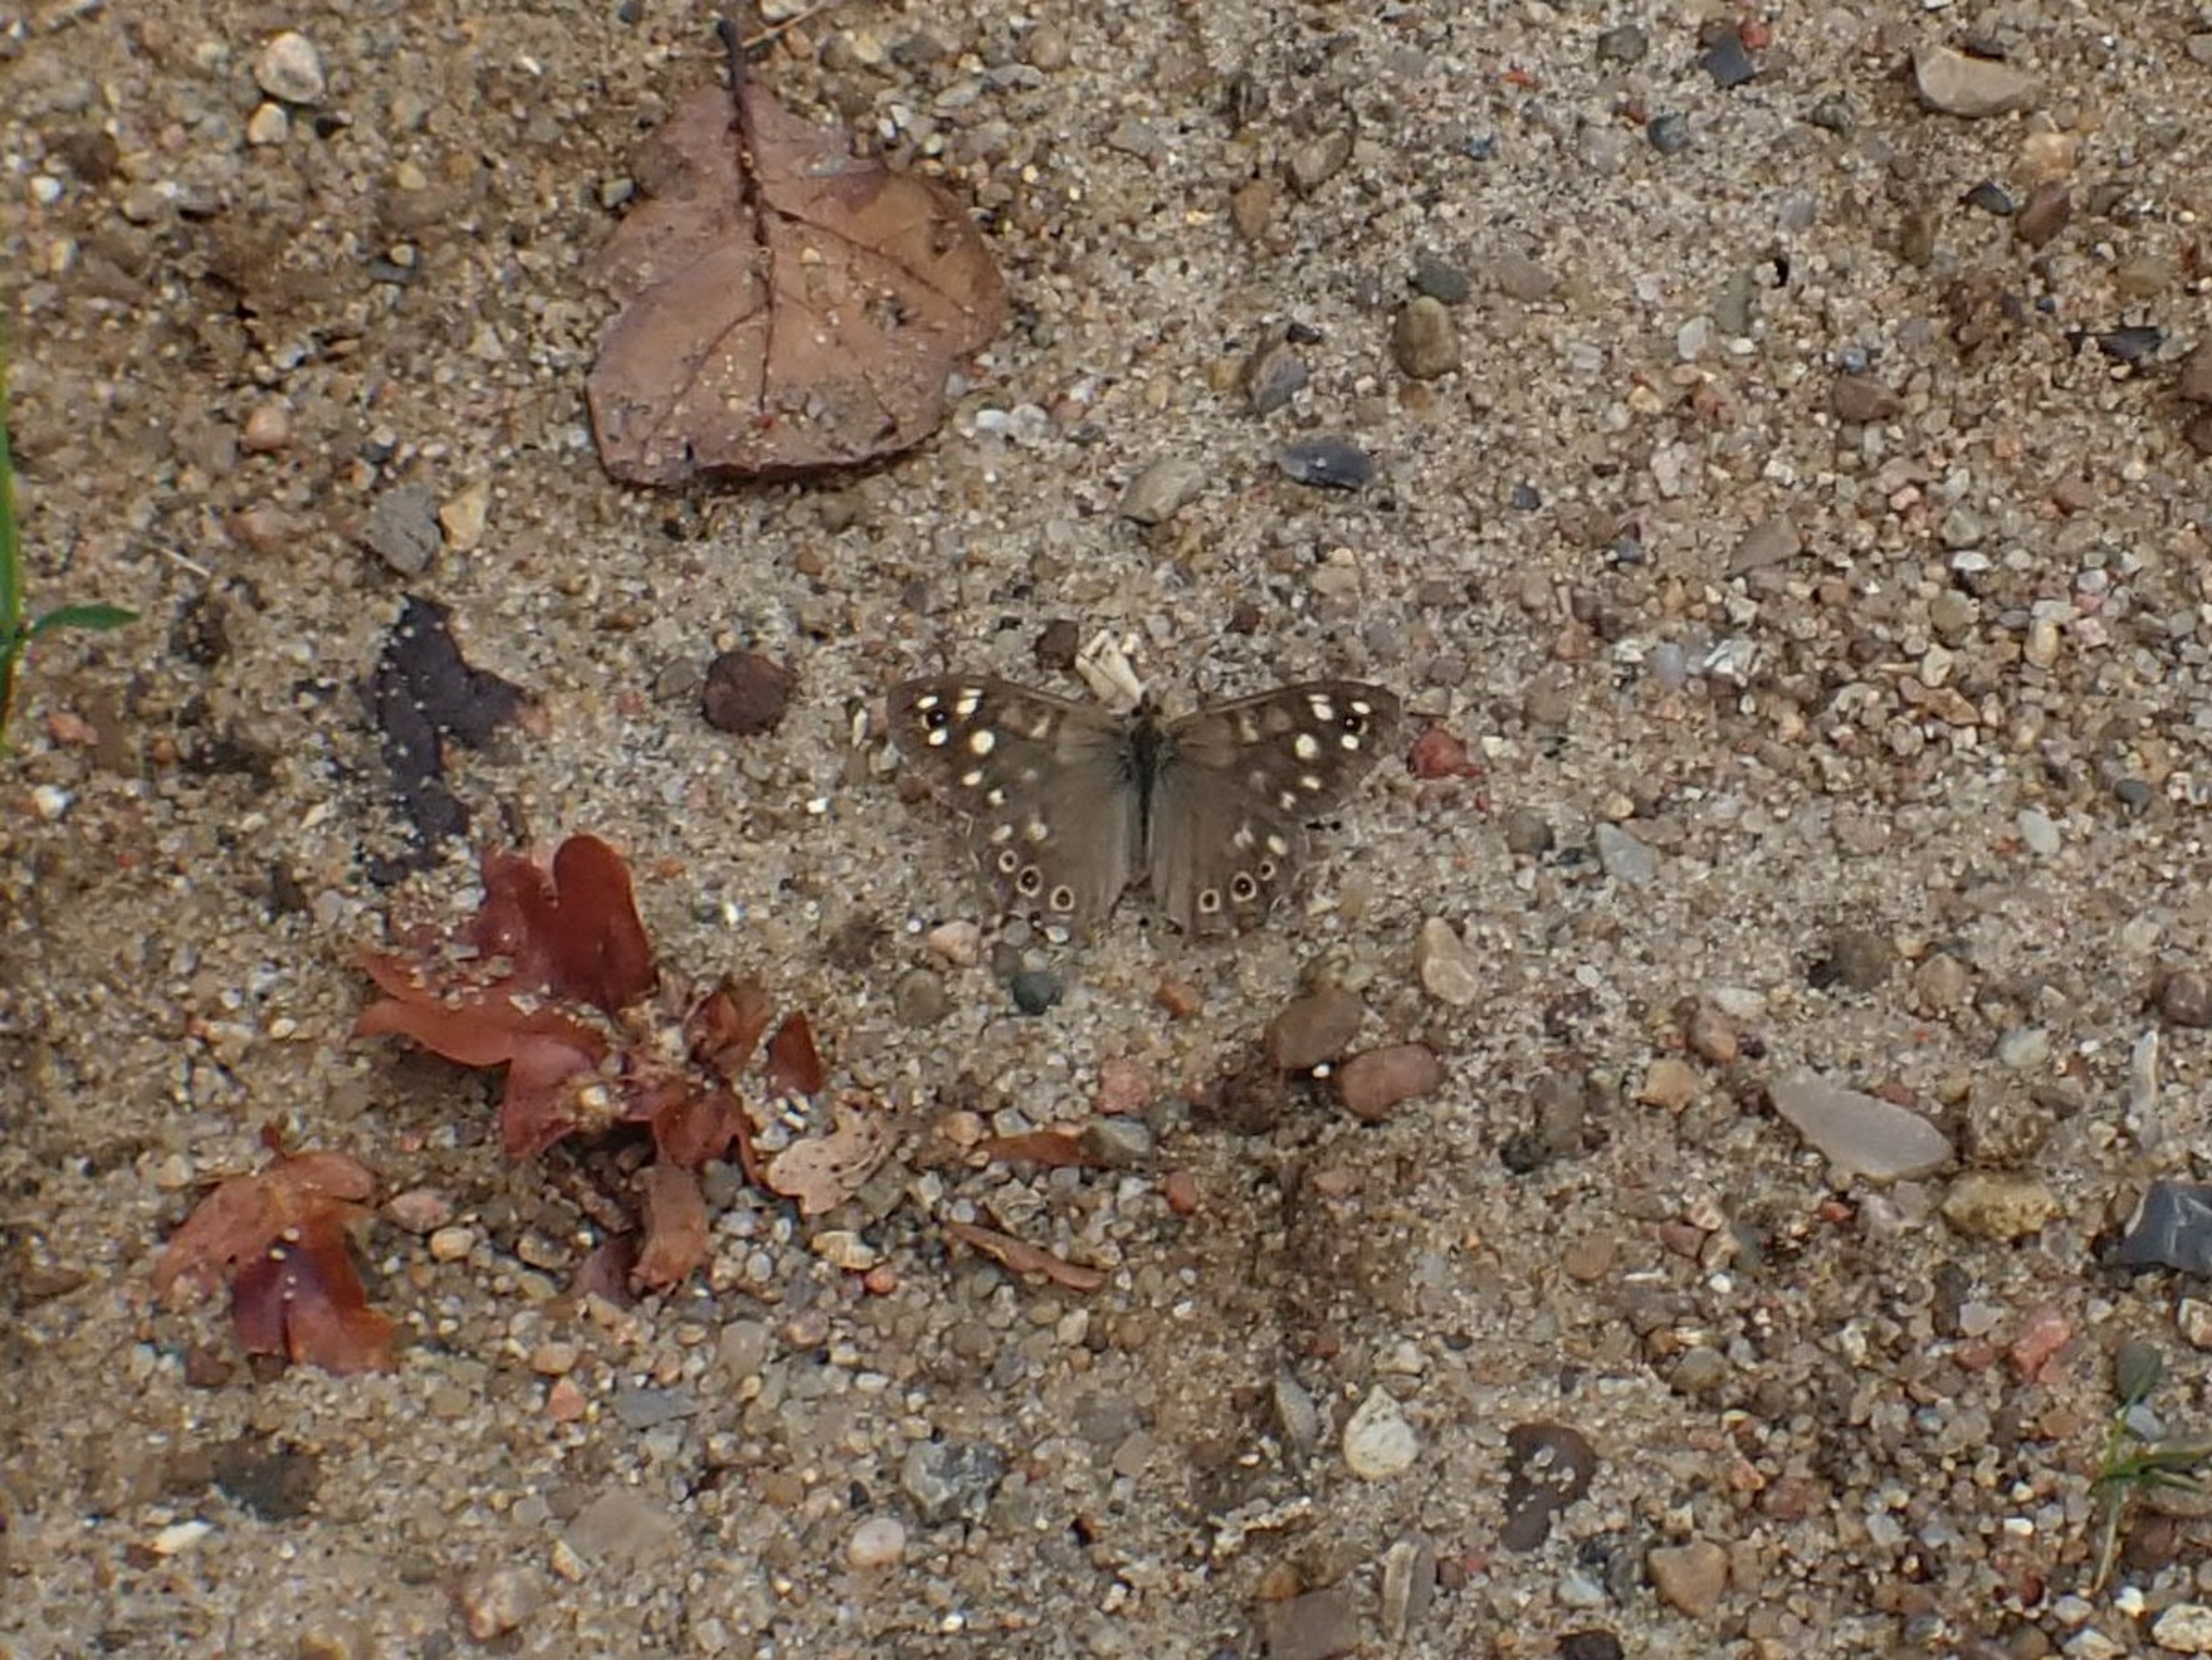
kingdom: Animalia
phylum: Arthropoda
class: Insecta
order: Lepidoptera
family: Nymphalidae
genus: Pararge
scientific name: Pararge aegeria
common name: Skovrandøje
